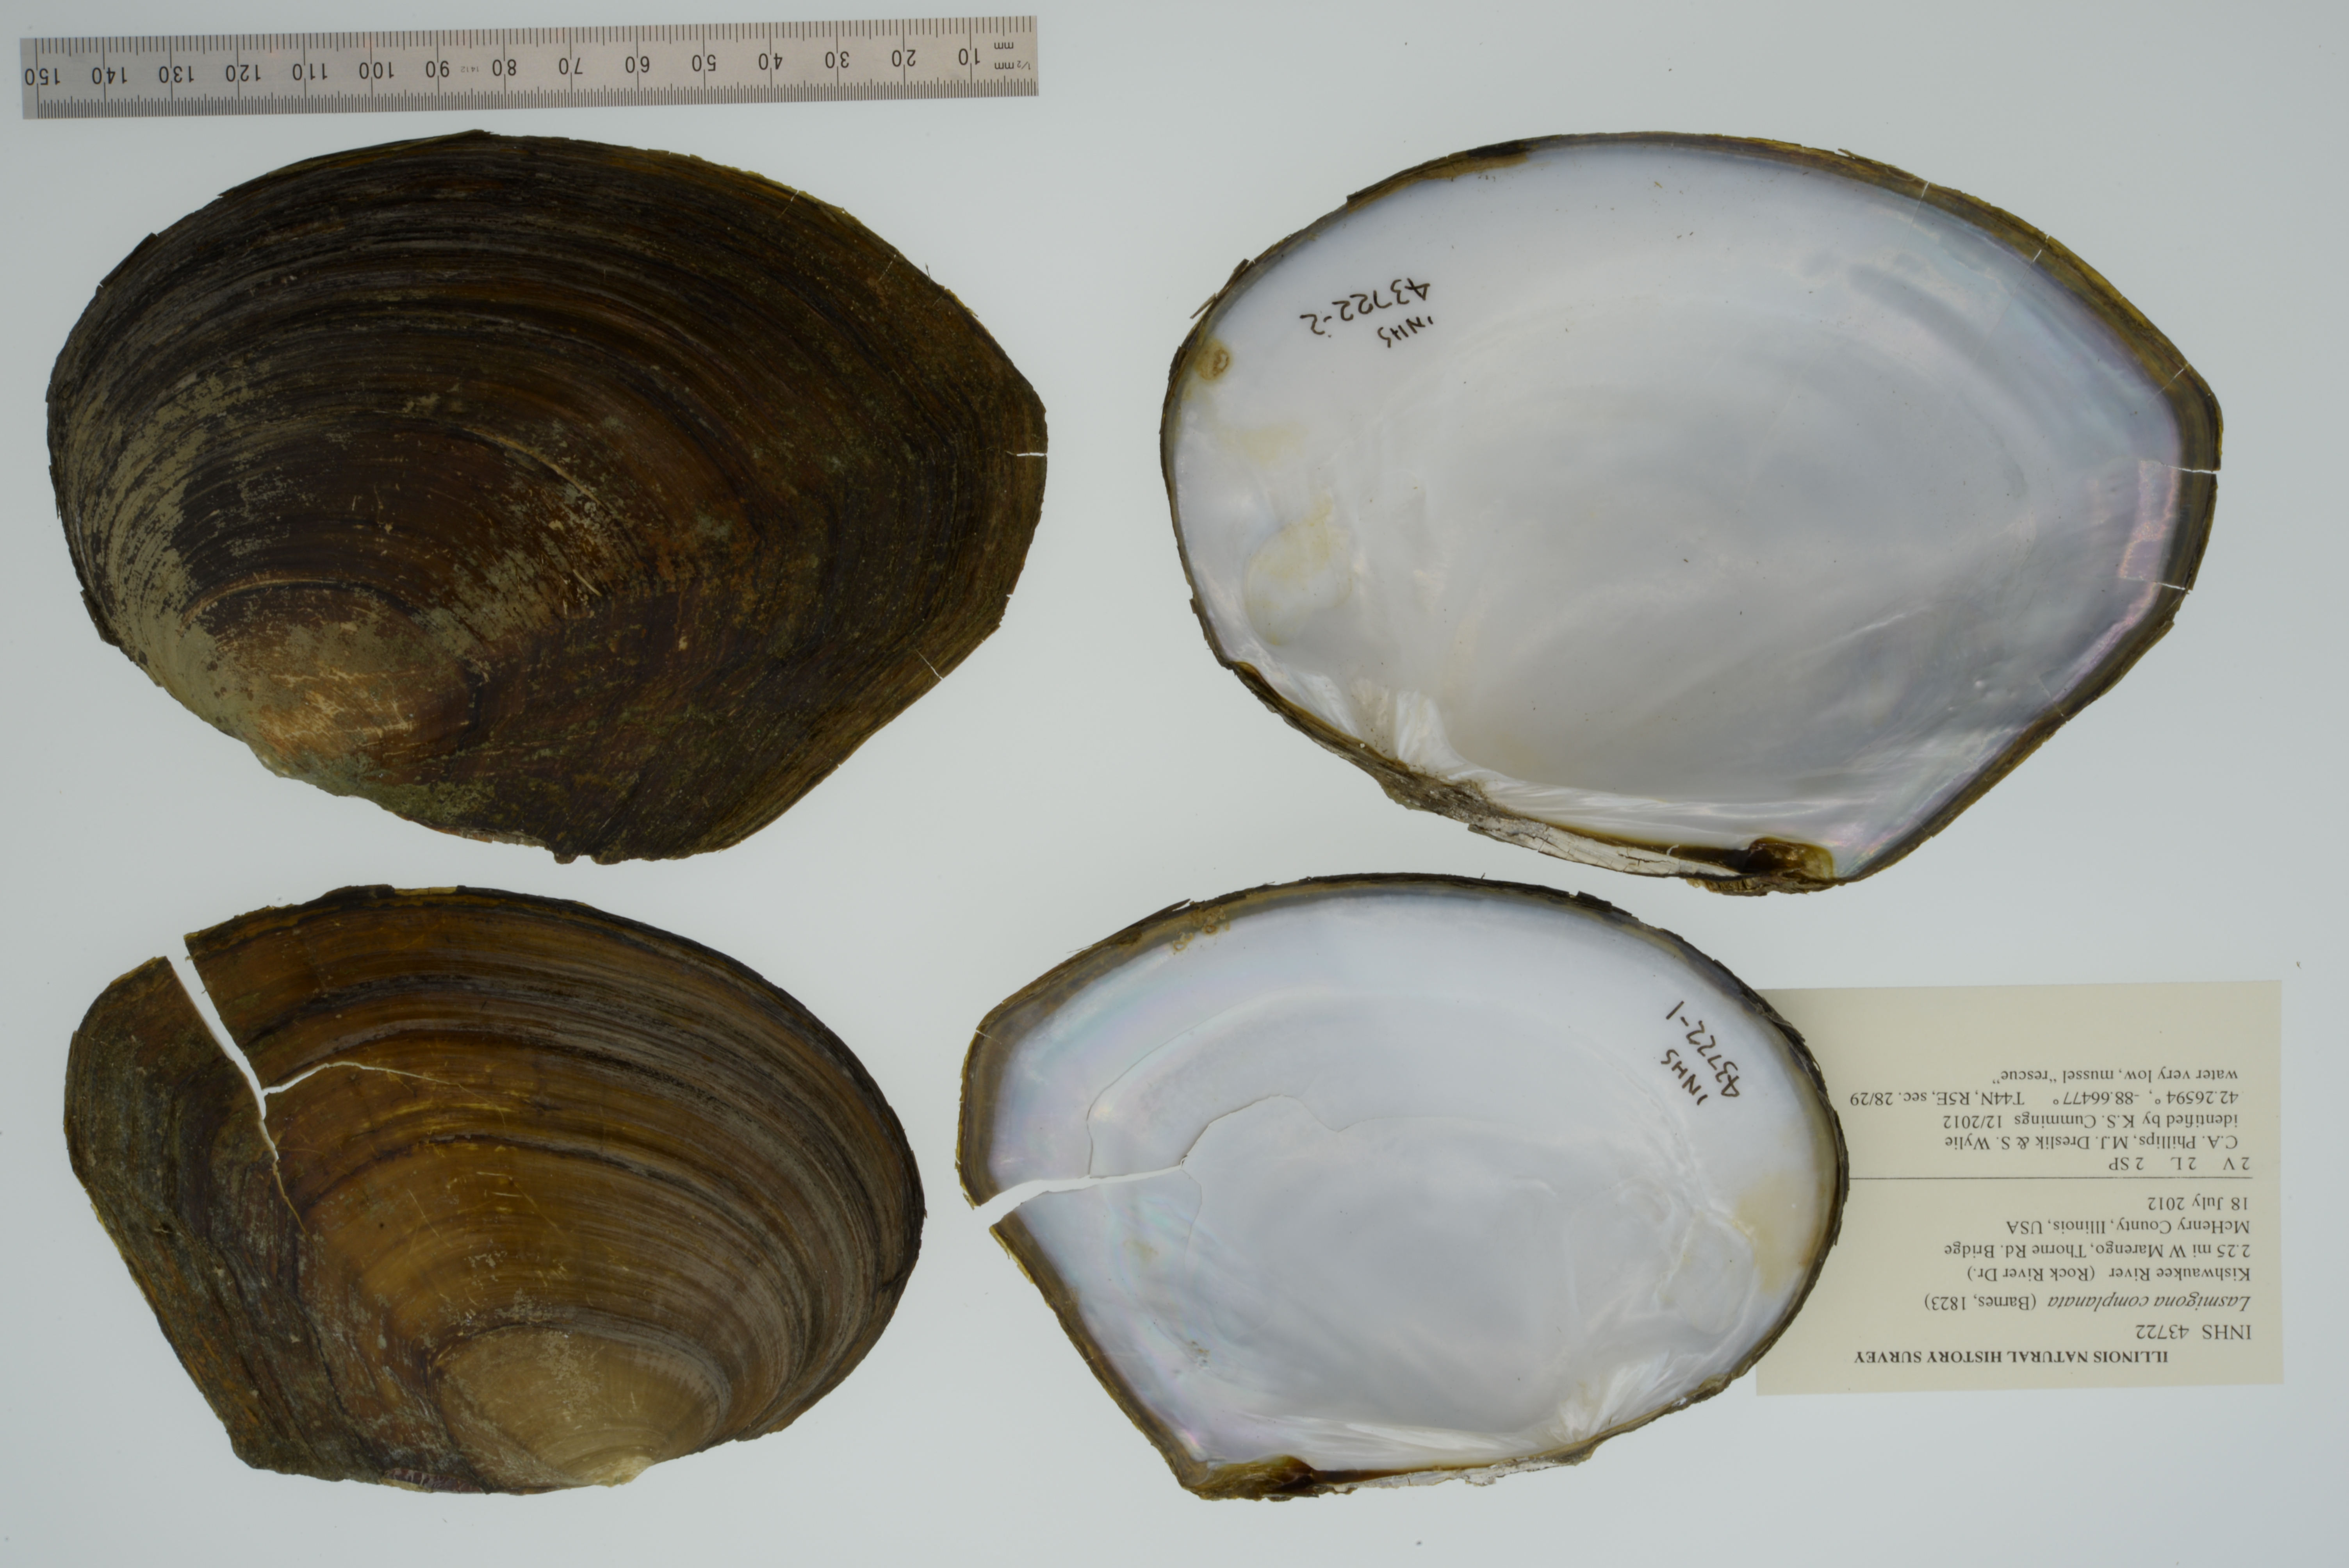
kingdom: Animalia
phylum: Mollusca
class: Bivalvia
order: Unionida
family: Unionidae
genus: Lasmigona
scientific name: Lasmigona complanata
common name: White heelsplitter
